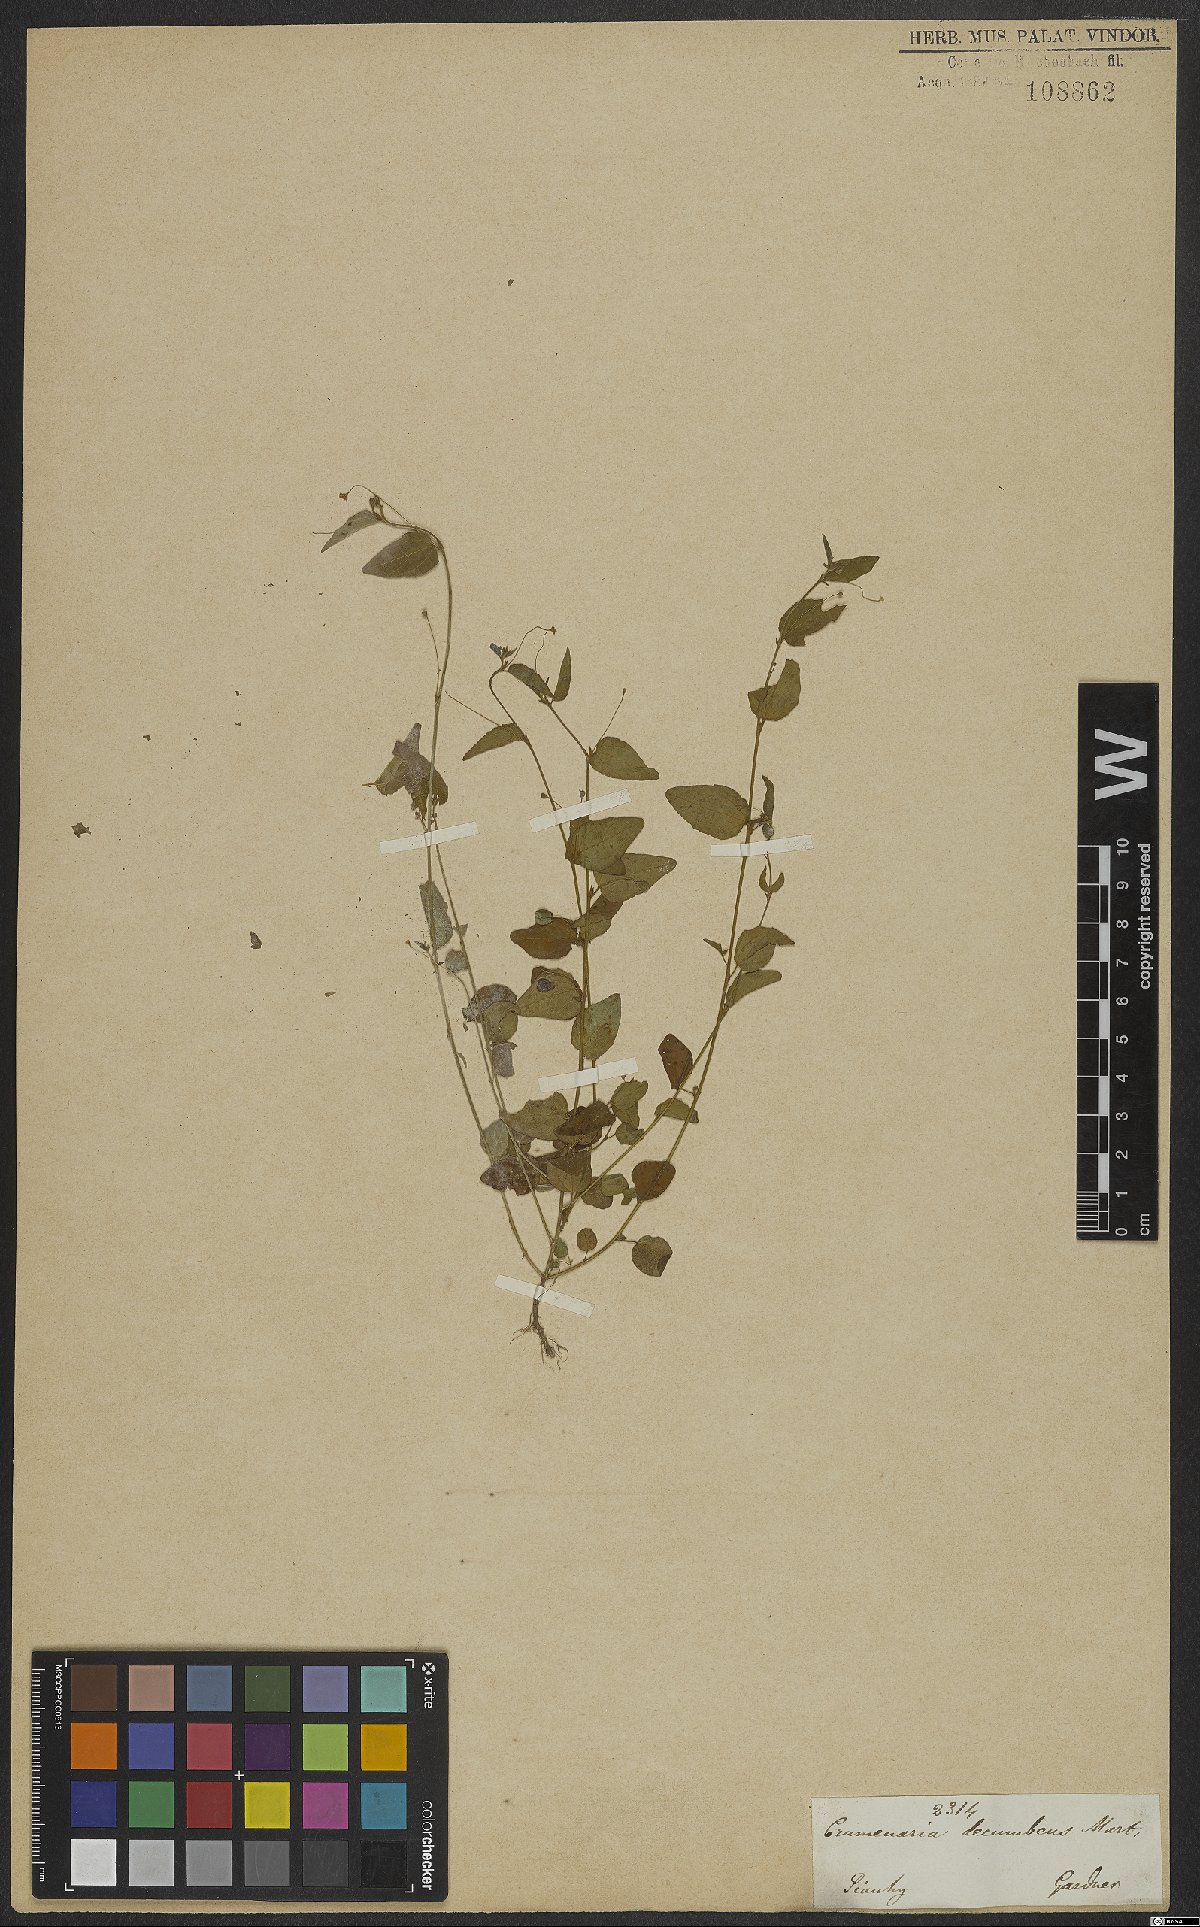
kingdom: Plantae
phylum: Tracheophyta
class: Magnoliopsida
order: Rosales
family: Rhamnaceae
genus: Crumenaria
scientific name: Crumenaria decumbens
